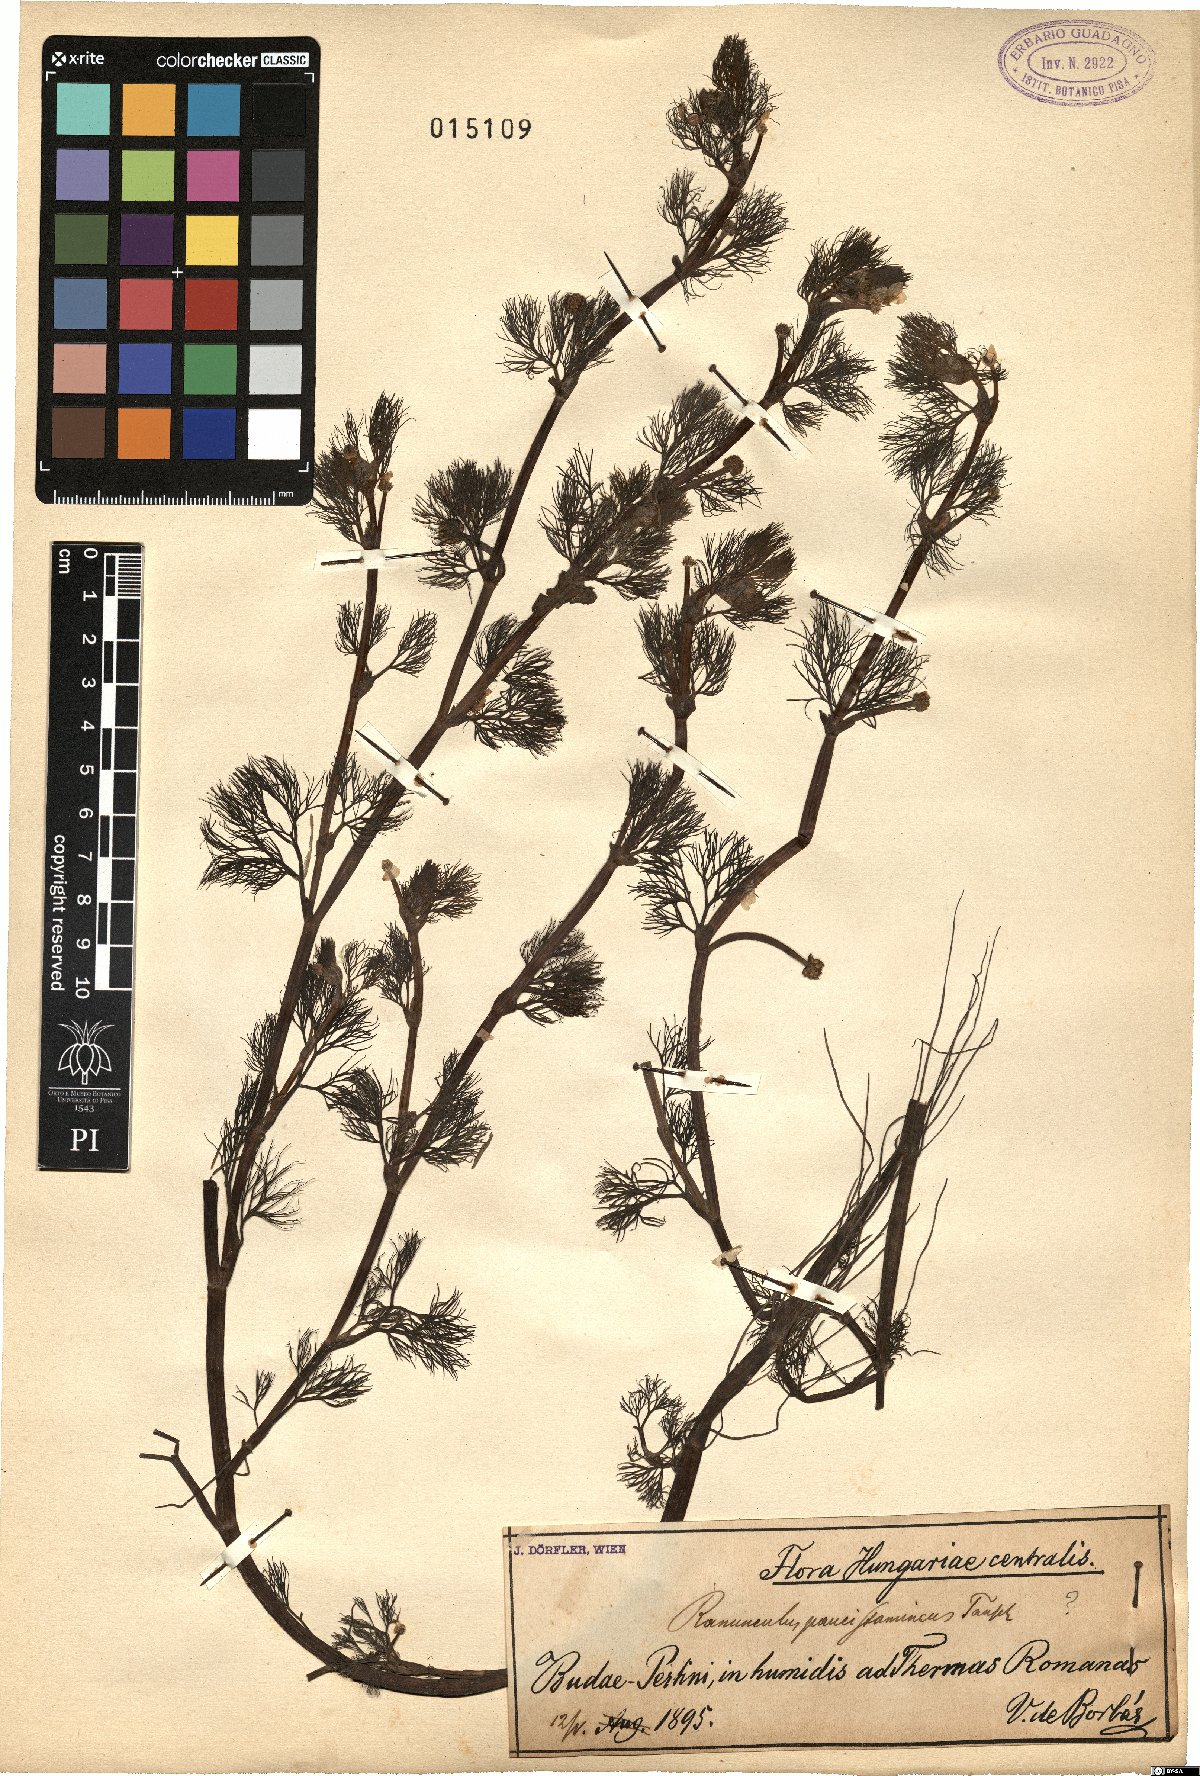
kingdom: Plantae
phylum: Tracheophyta
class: Magnoliopsida
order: Ranunculales
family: Ranunculaceae
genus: Ranunculus
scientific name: Ranunculus
